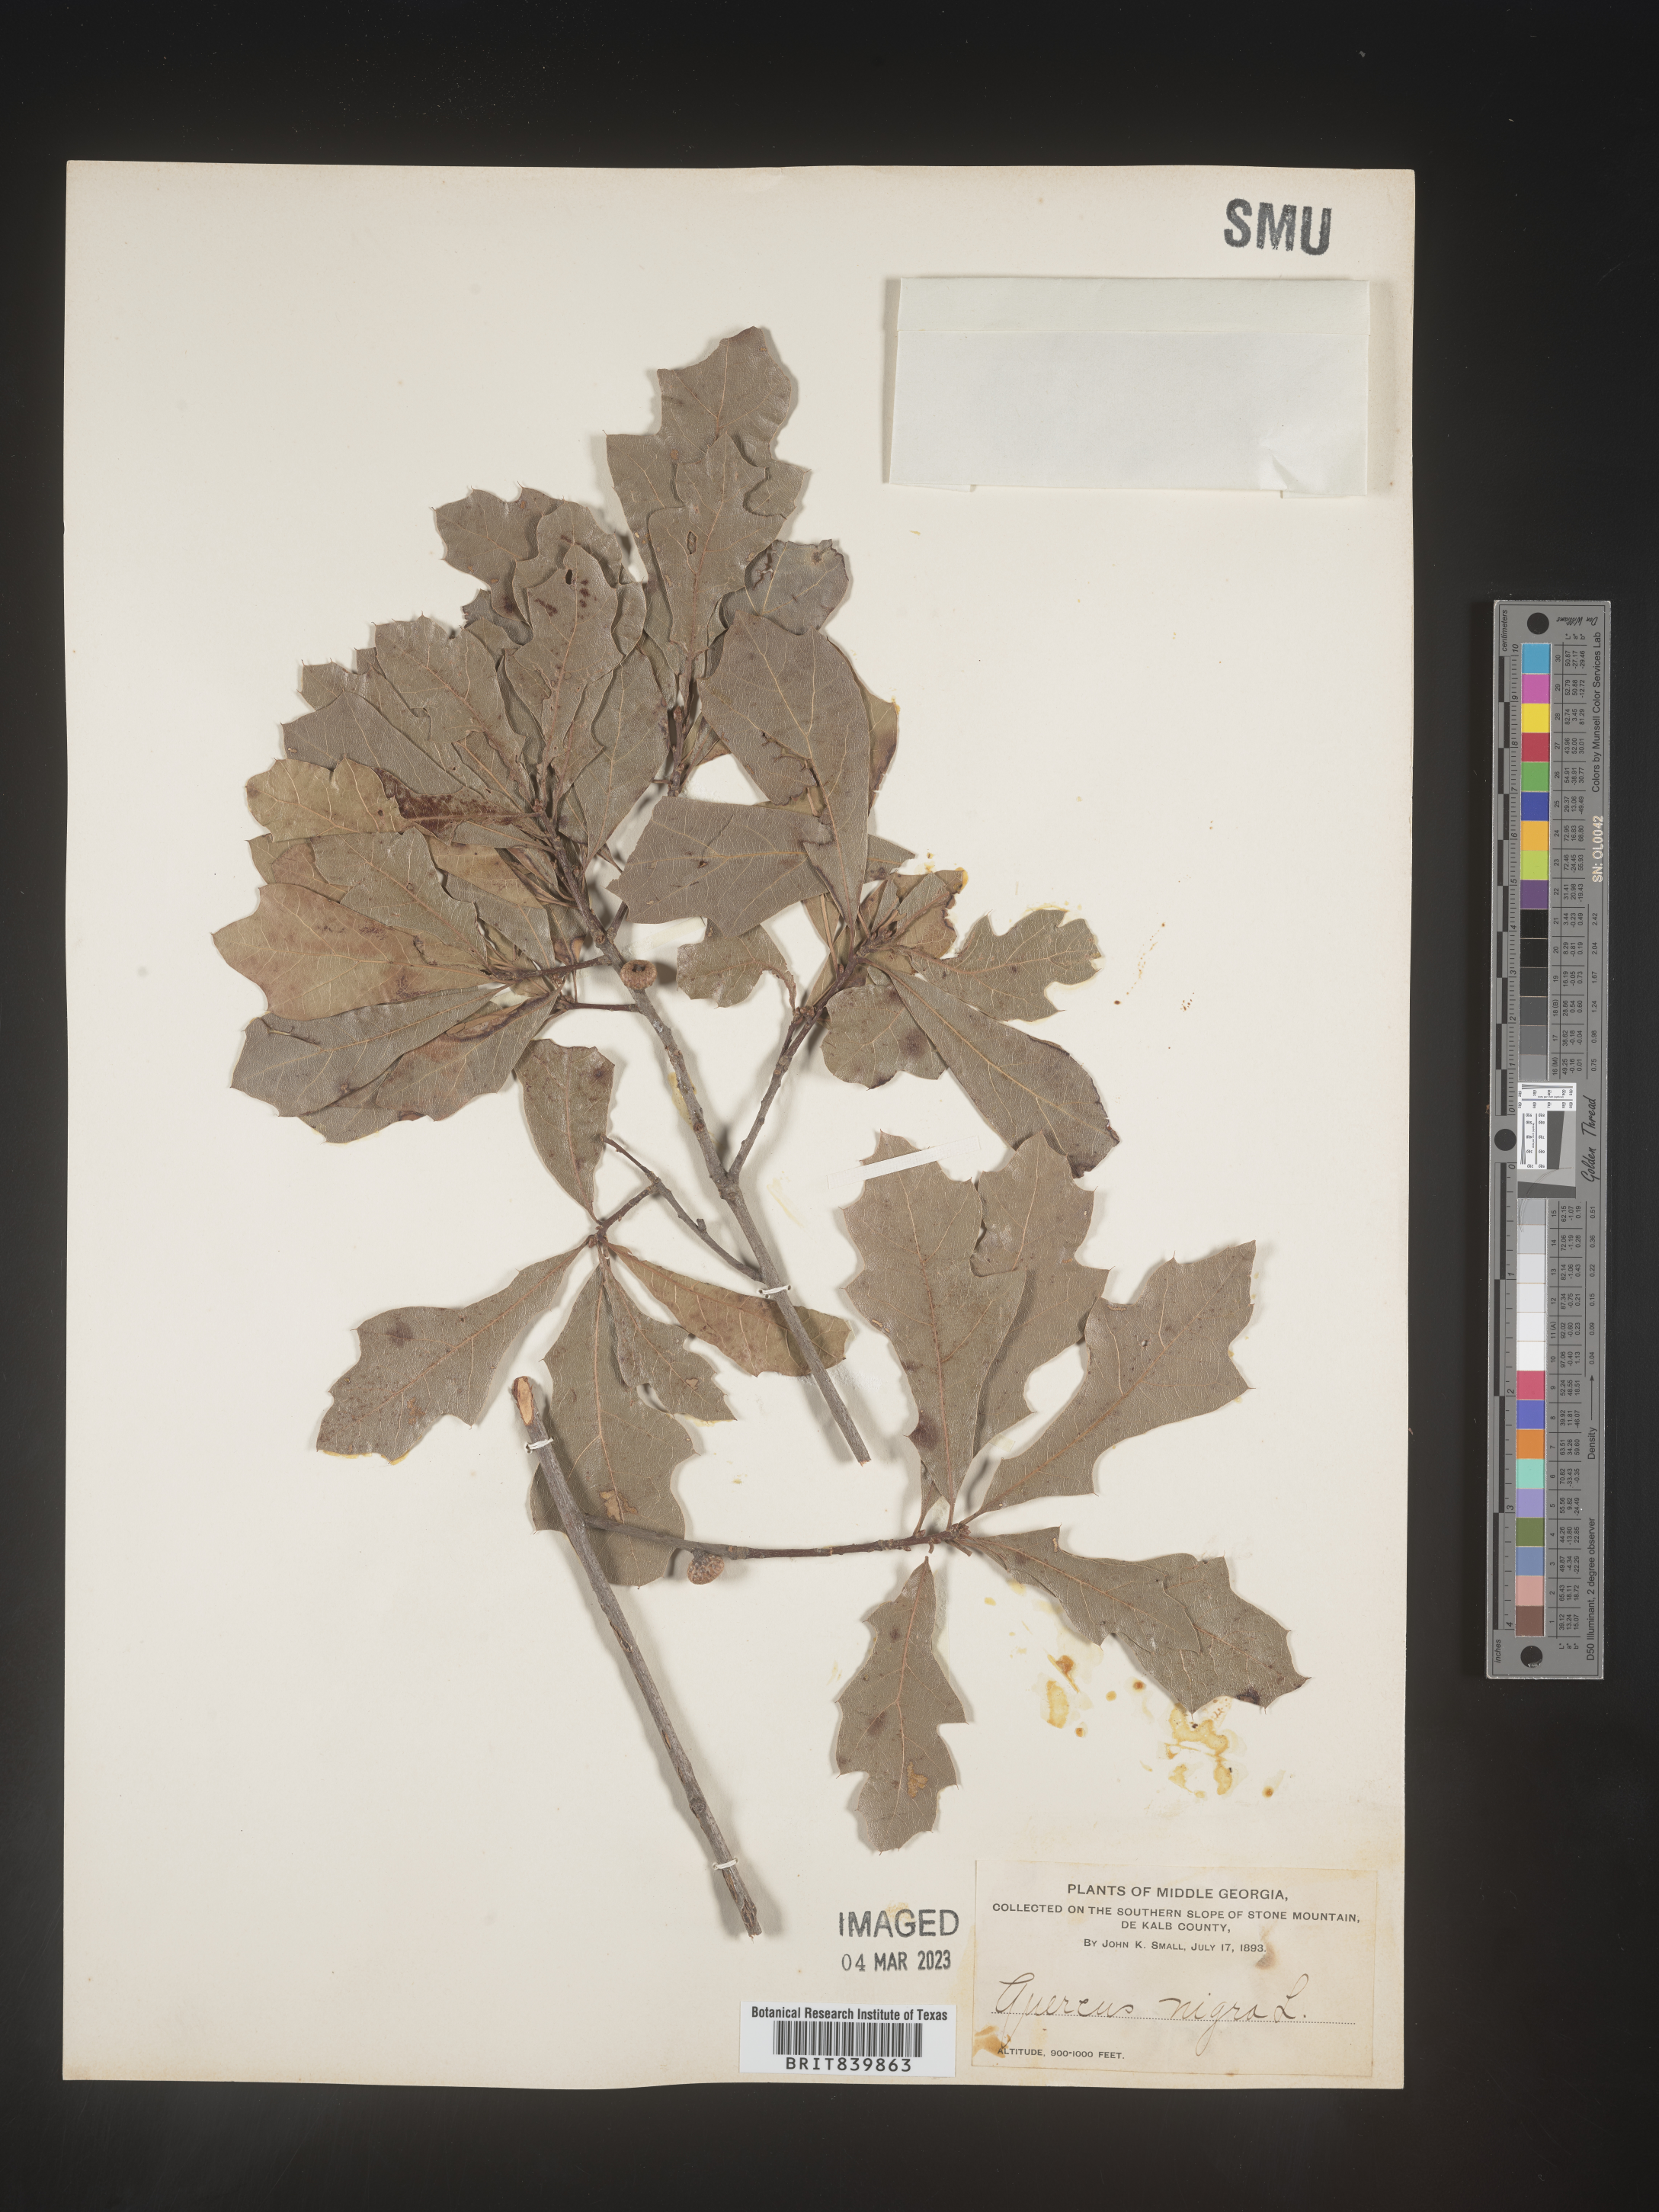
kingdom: Plantae
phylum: Tracheophyta
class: Magnoliopsida
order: Fagales
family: Fagaceae
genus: Quercus
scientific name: Quercus nigra
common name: Water oak
